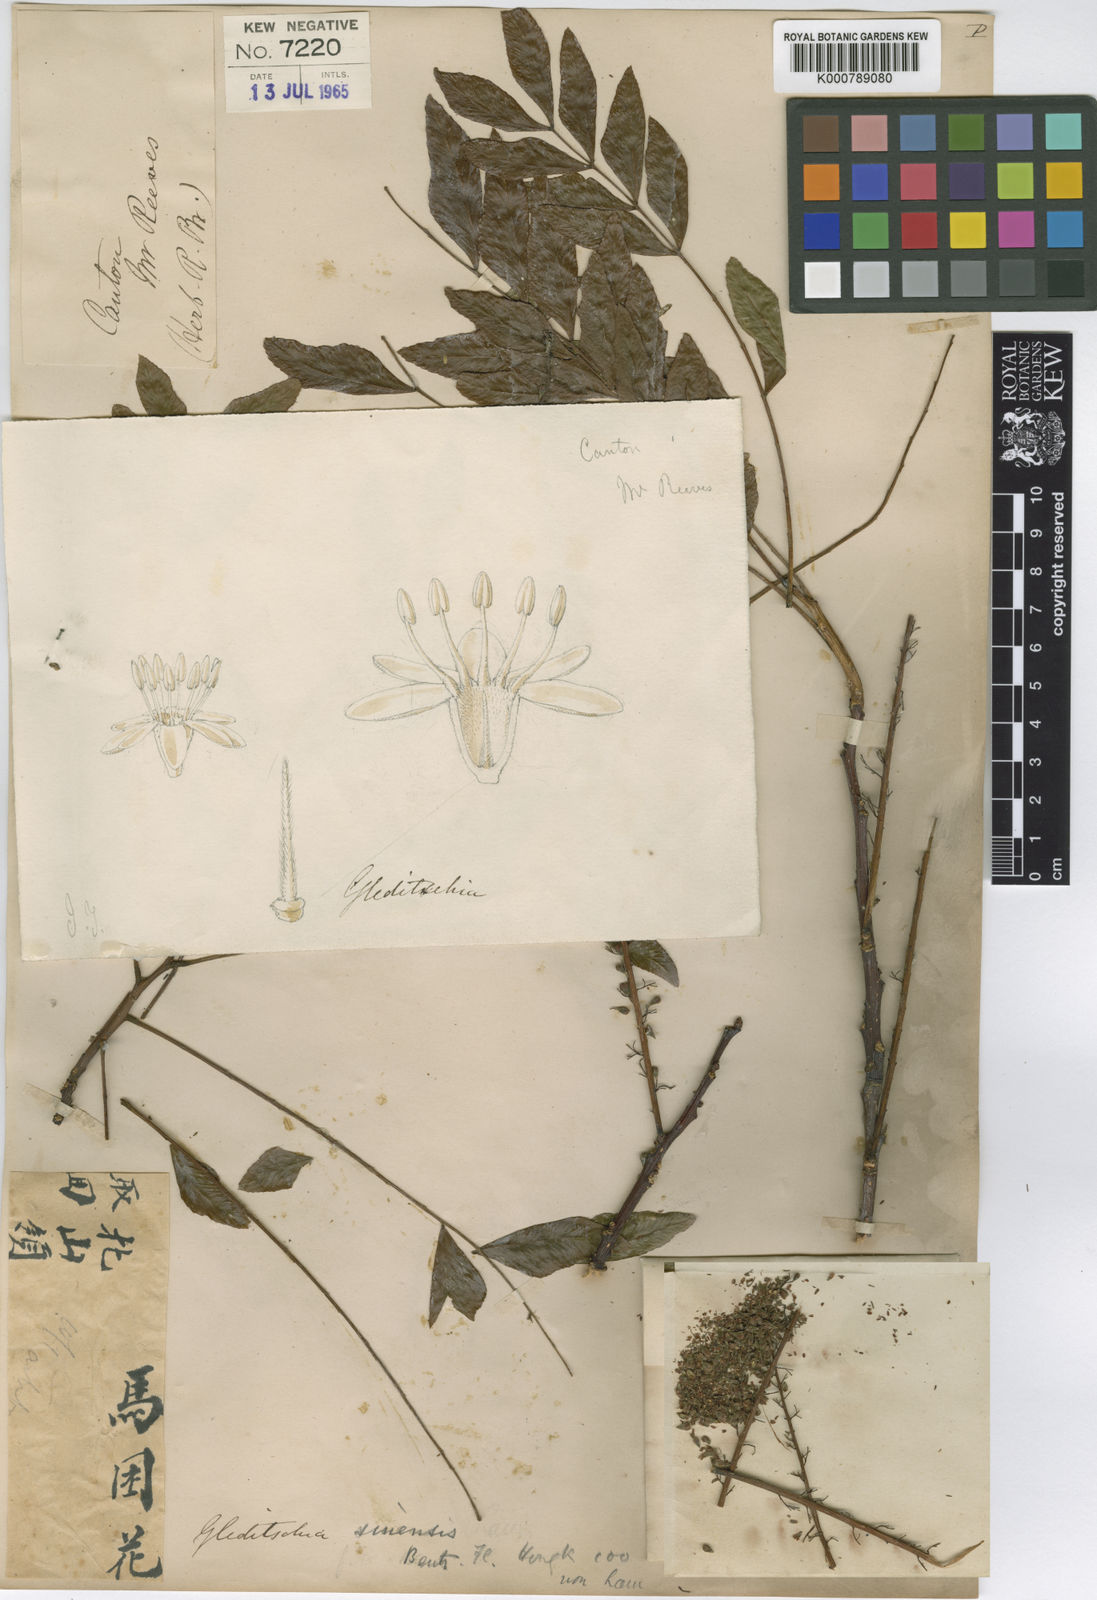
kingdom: Plantae
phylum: Tracheophyta
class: Magnoliopsida
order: Fabales
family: Fabaceae
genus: Gleditsia
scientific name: Gleditsia australis
